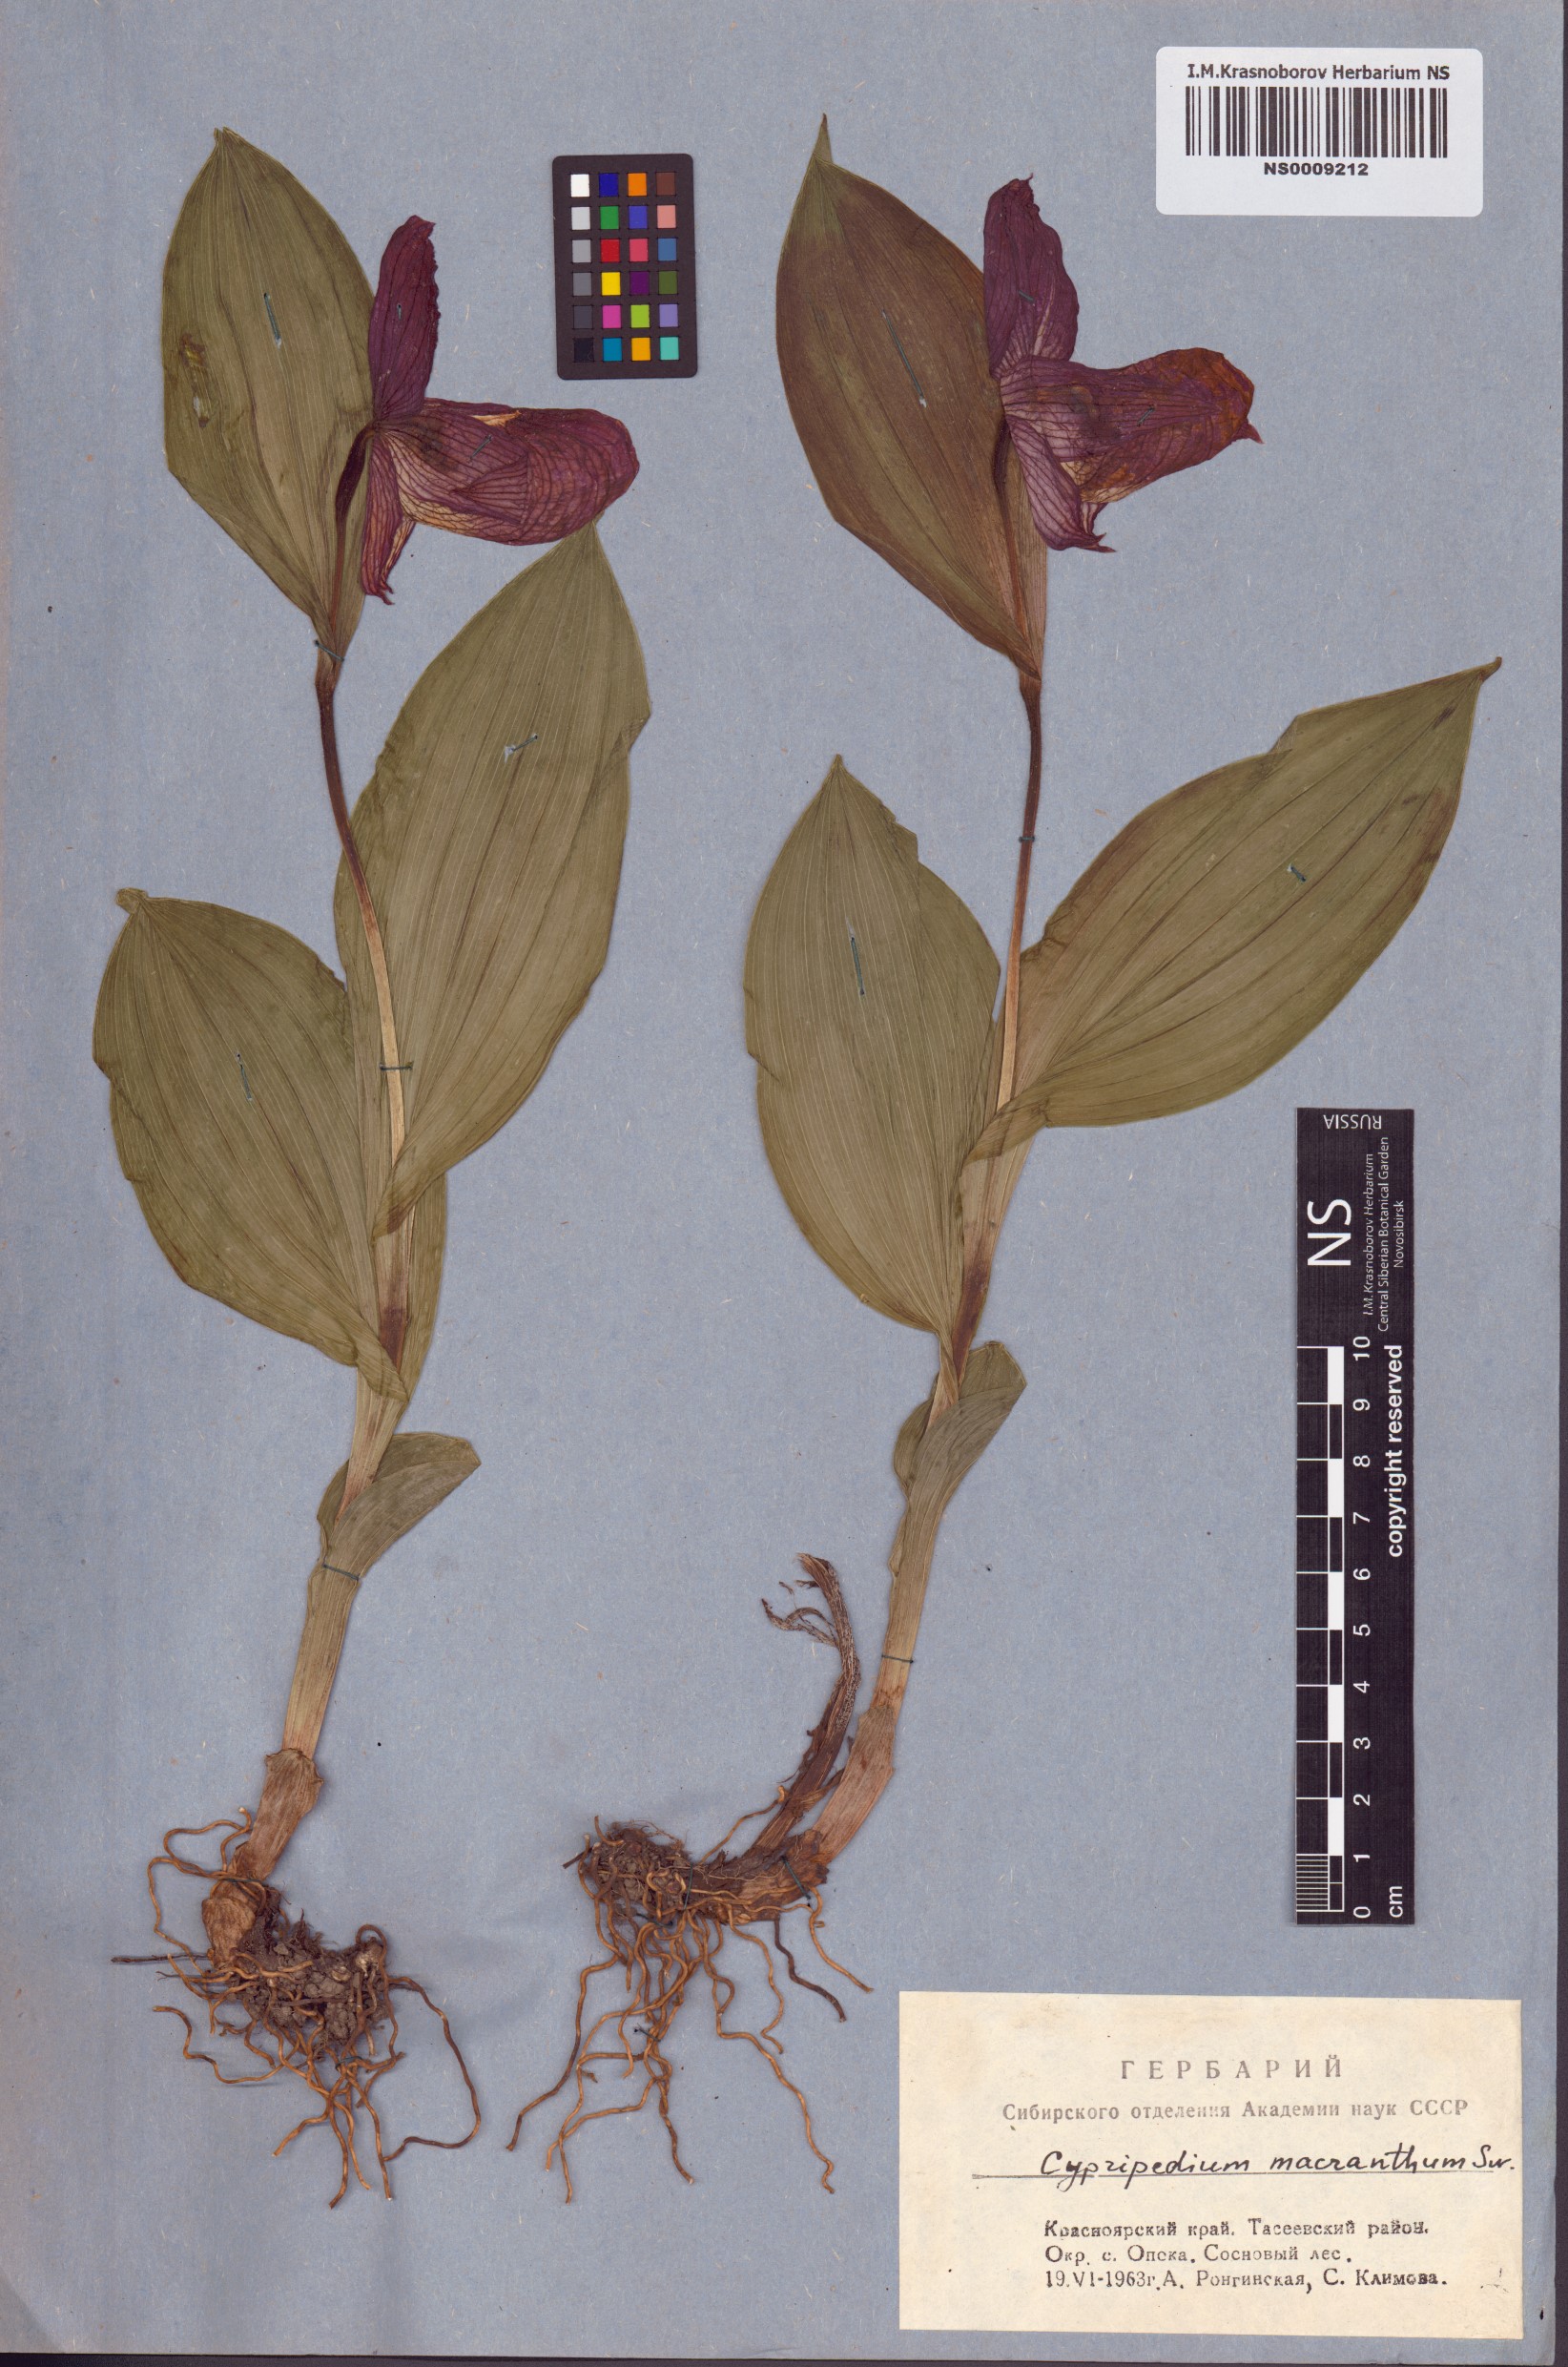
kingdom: Plantae
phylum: Tracheophyta
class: Liliopsida
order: Asparagales
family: Orchidaceae
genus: Cypripedium
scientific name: Cypripedium macranthos
